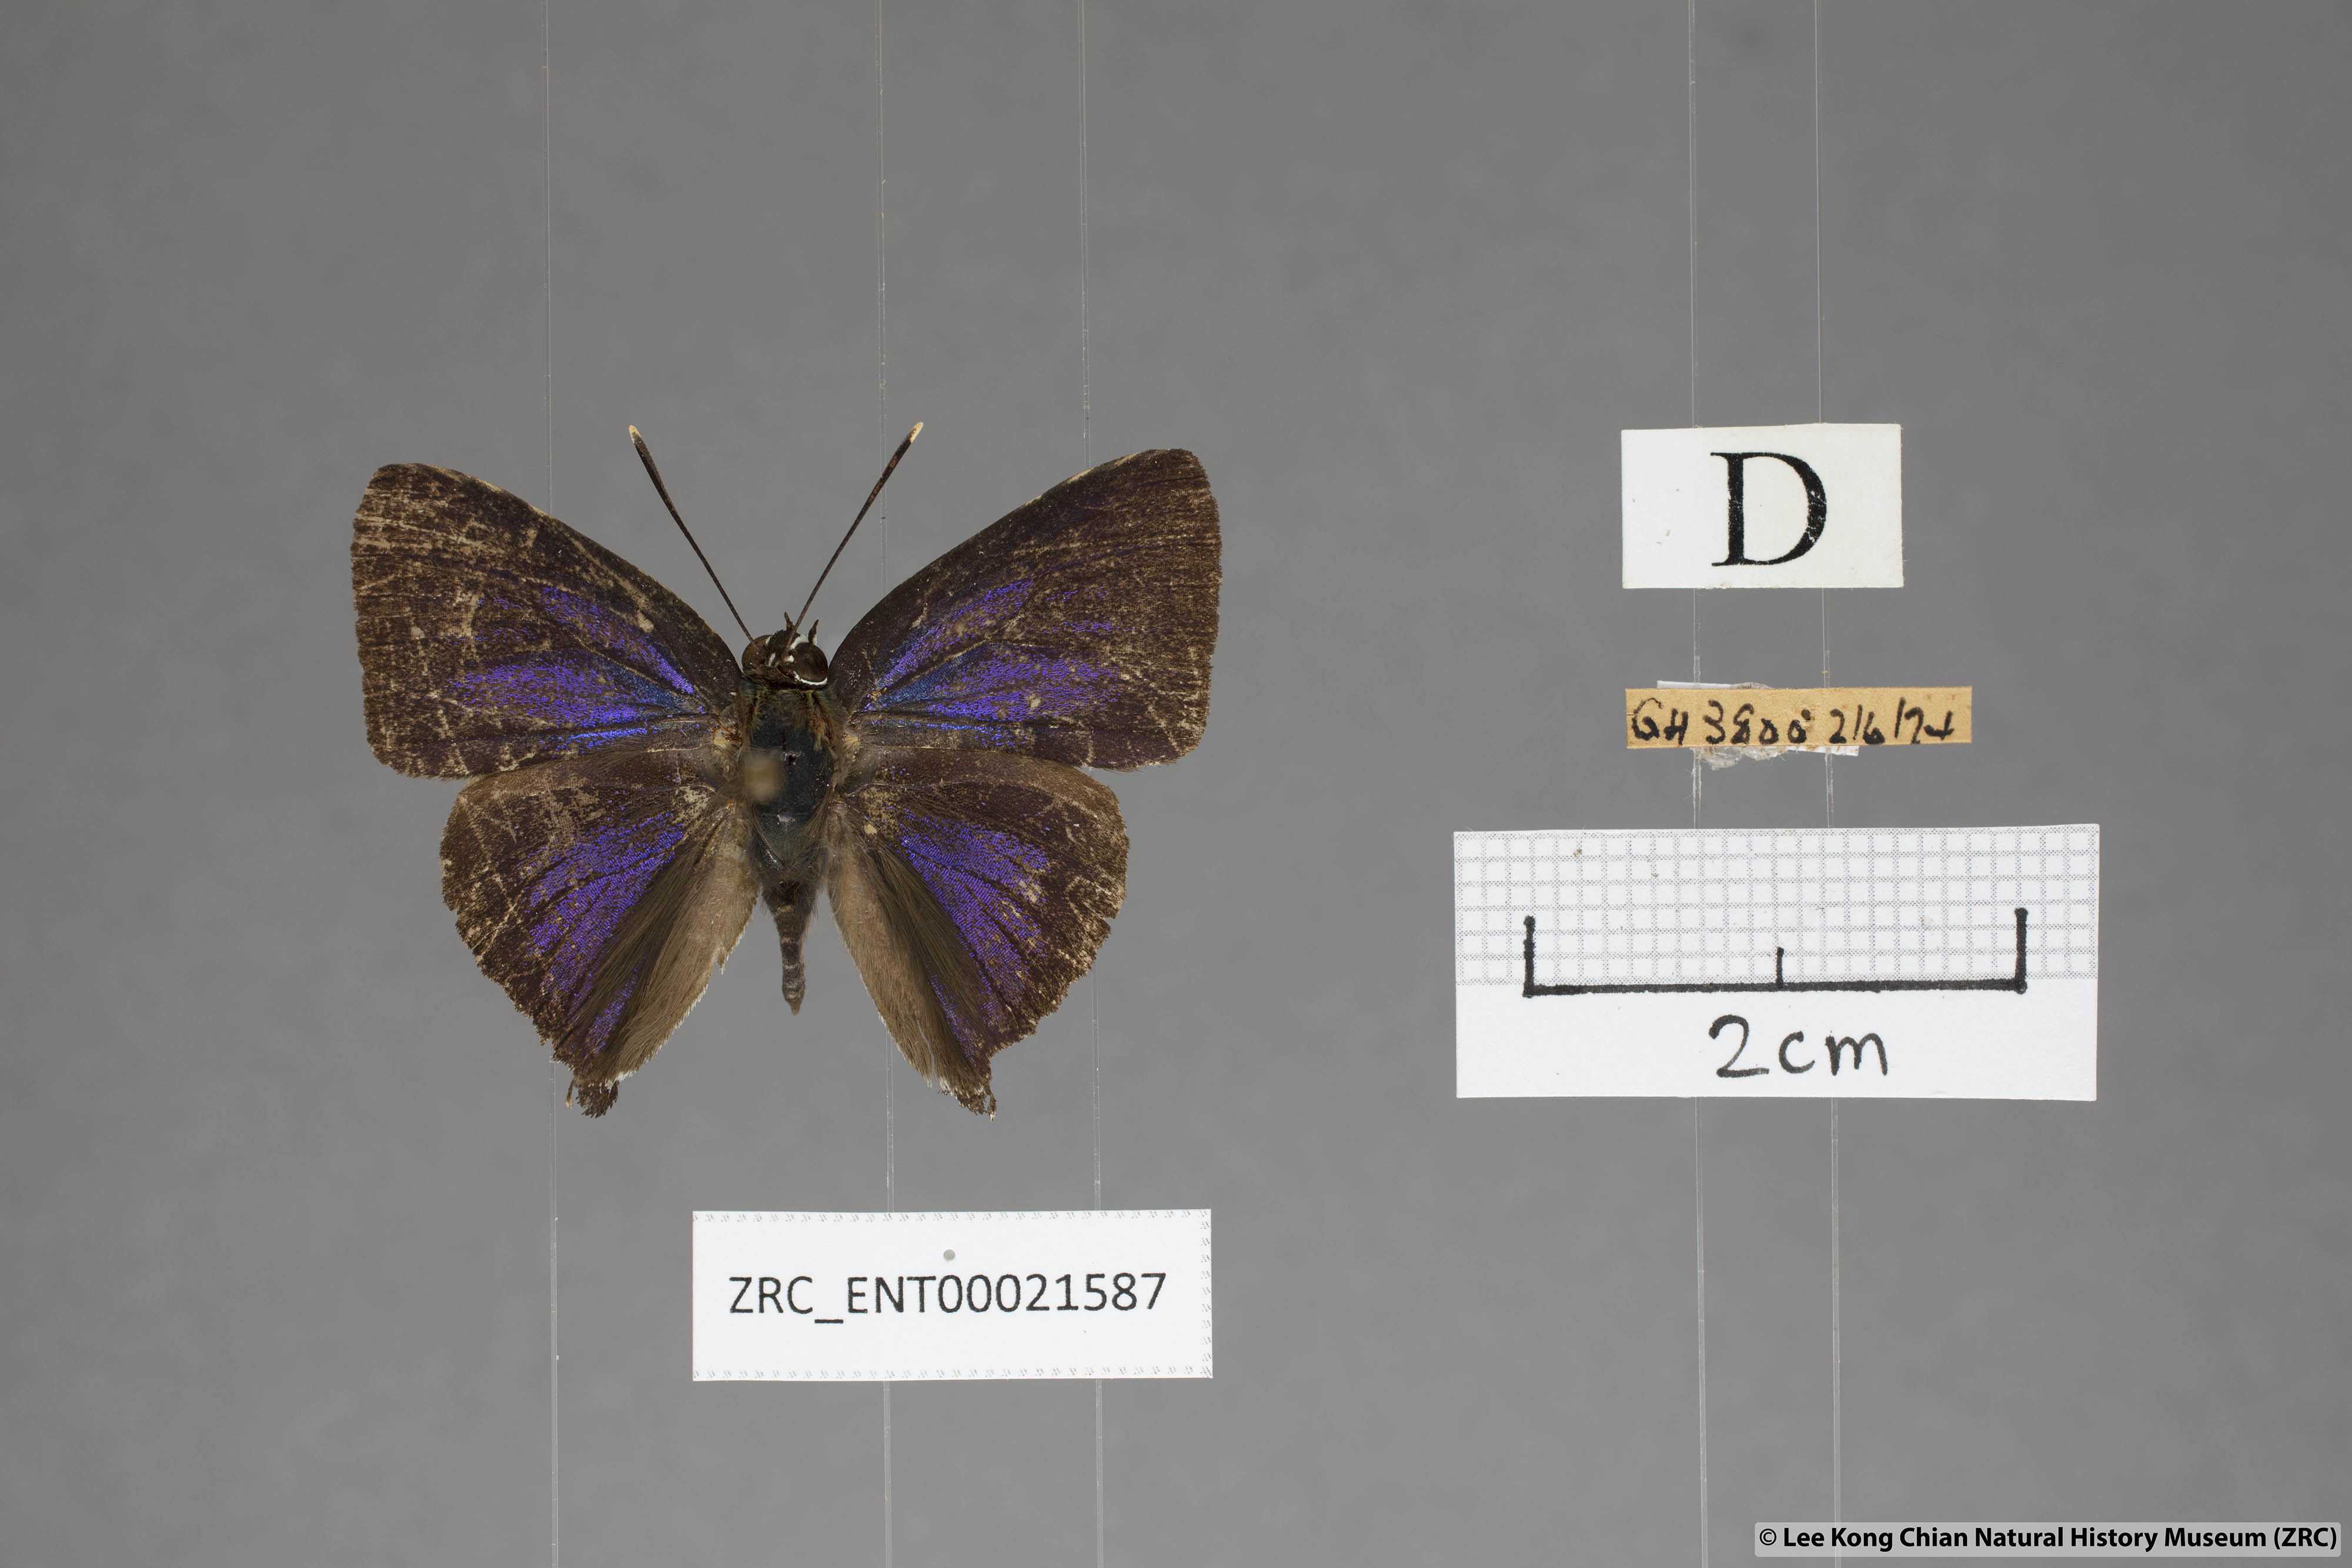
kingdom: Animalia
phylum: Arthropoda
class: Insecta
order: Lepidoptera
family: Lycaenidae
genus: Iraota
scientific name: Iraota
